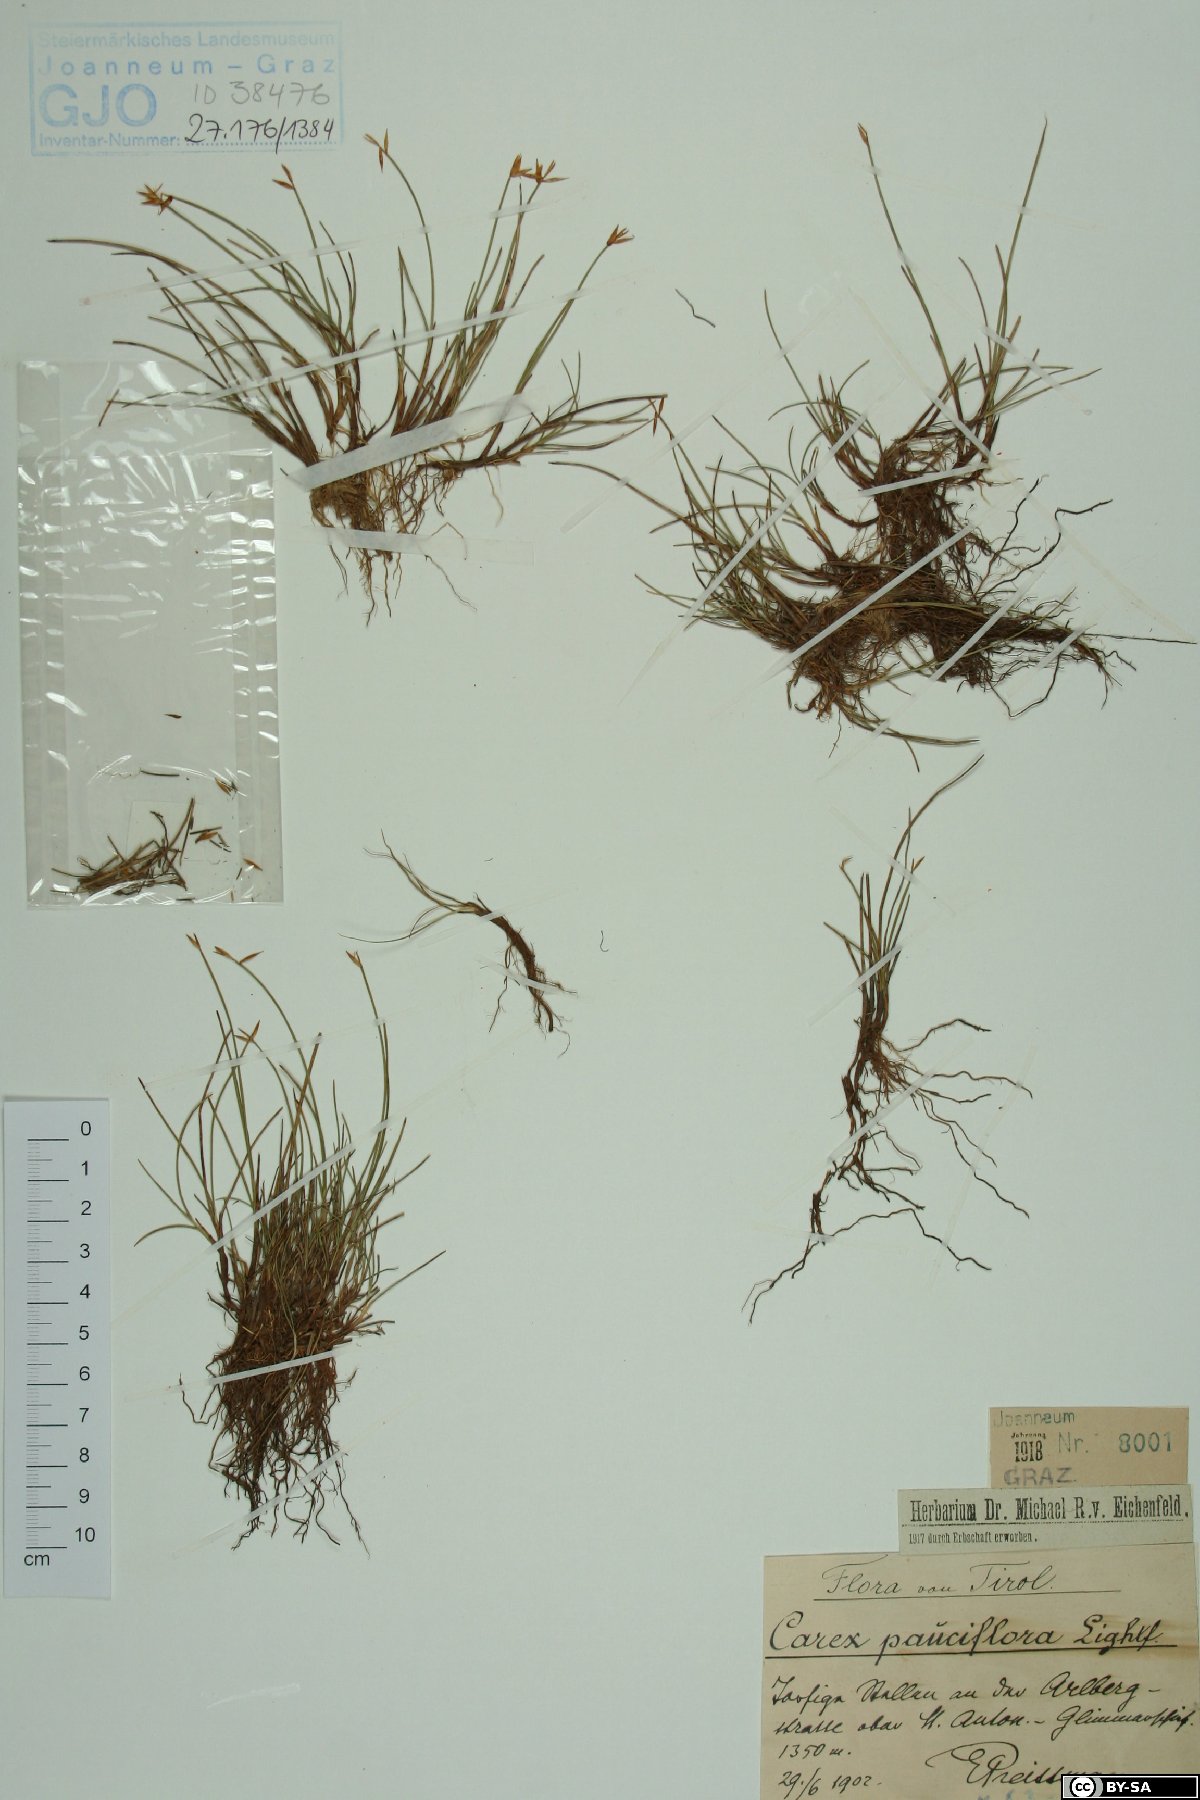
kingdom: Plantae
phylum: Tracheophyta
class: Liliopsida
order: Poales
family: Cyperaceae
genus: Carex
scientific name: Carex pauciflora
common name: Few-flowered sedge
